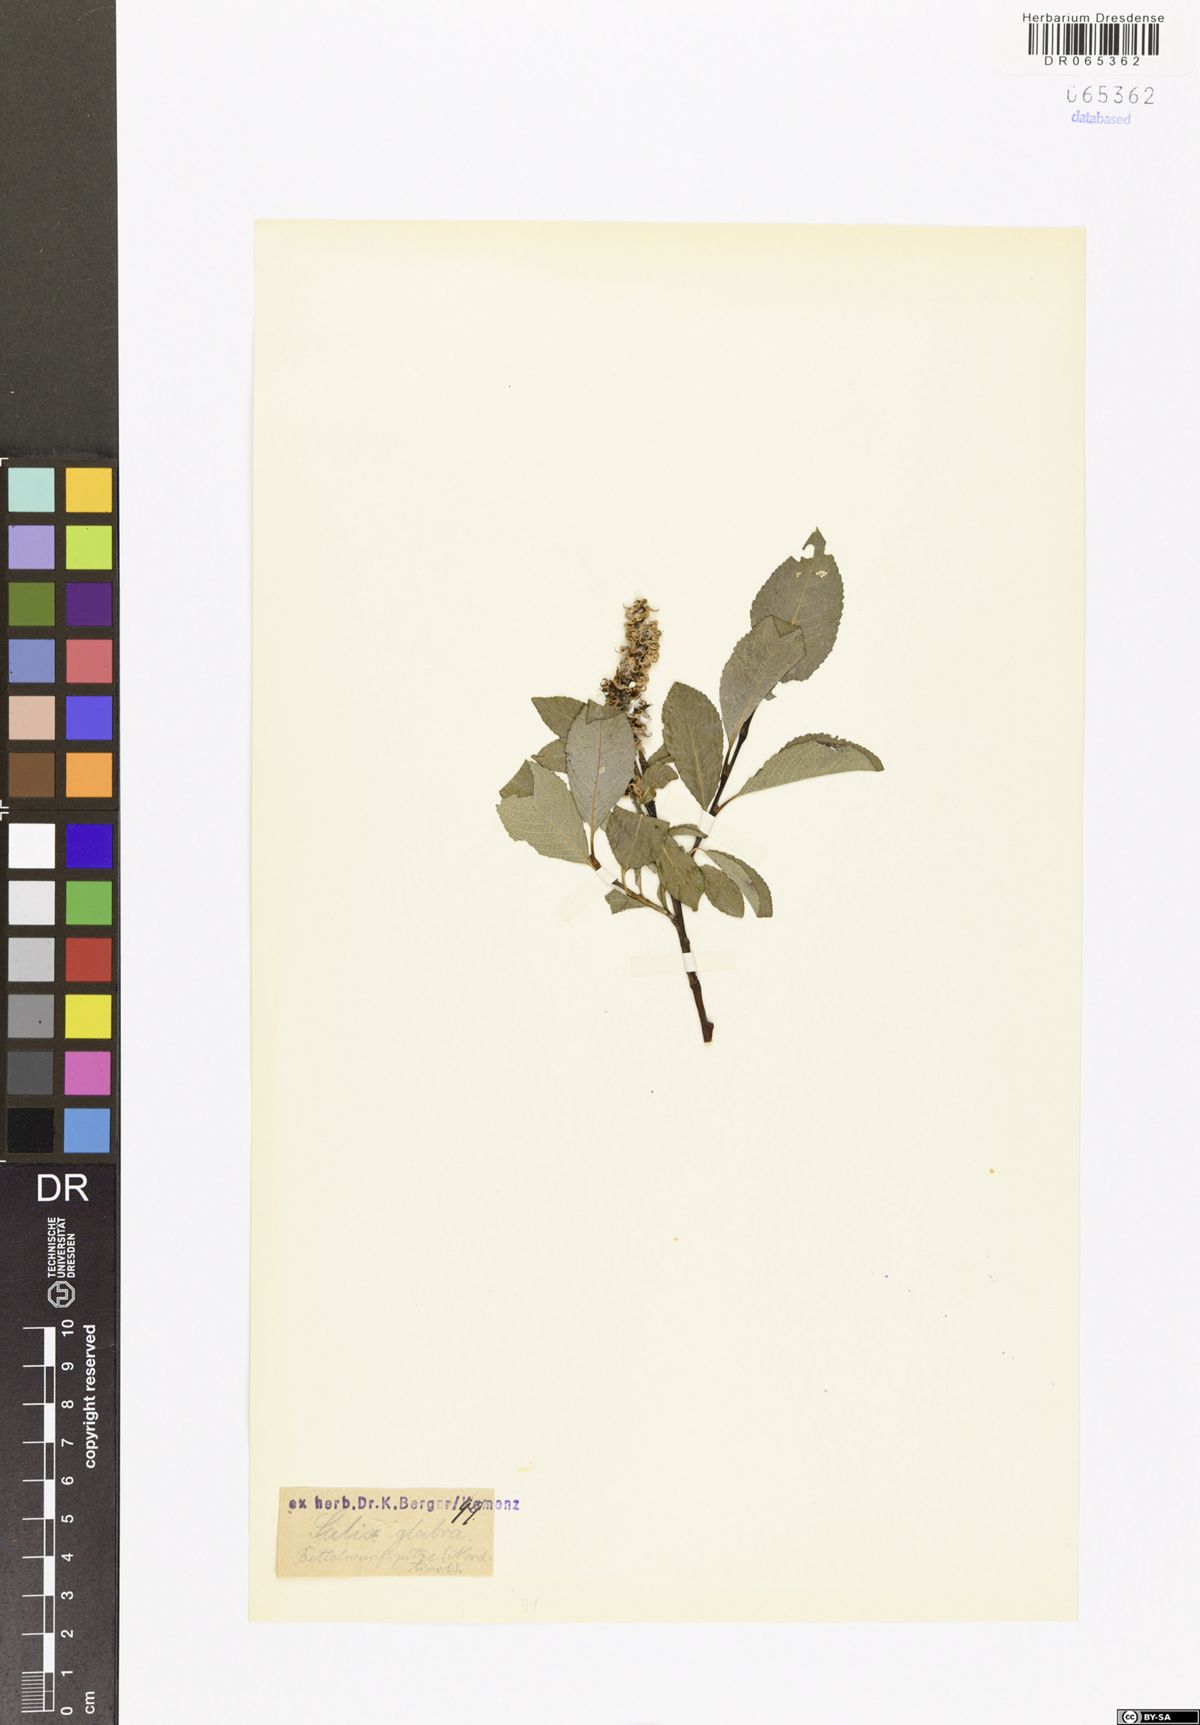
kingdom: Plantae
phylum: Tracheophyta
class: Magnoliopsida
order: Malpighiales
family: Salicaceae
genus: Salix
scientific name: Salix glabra
